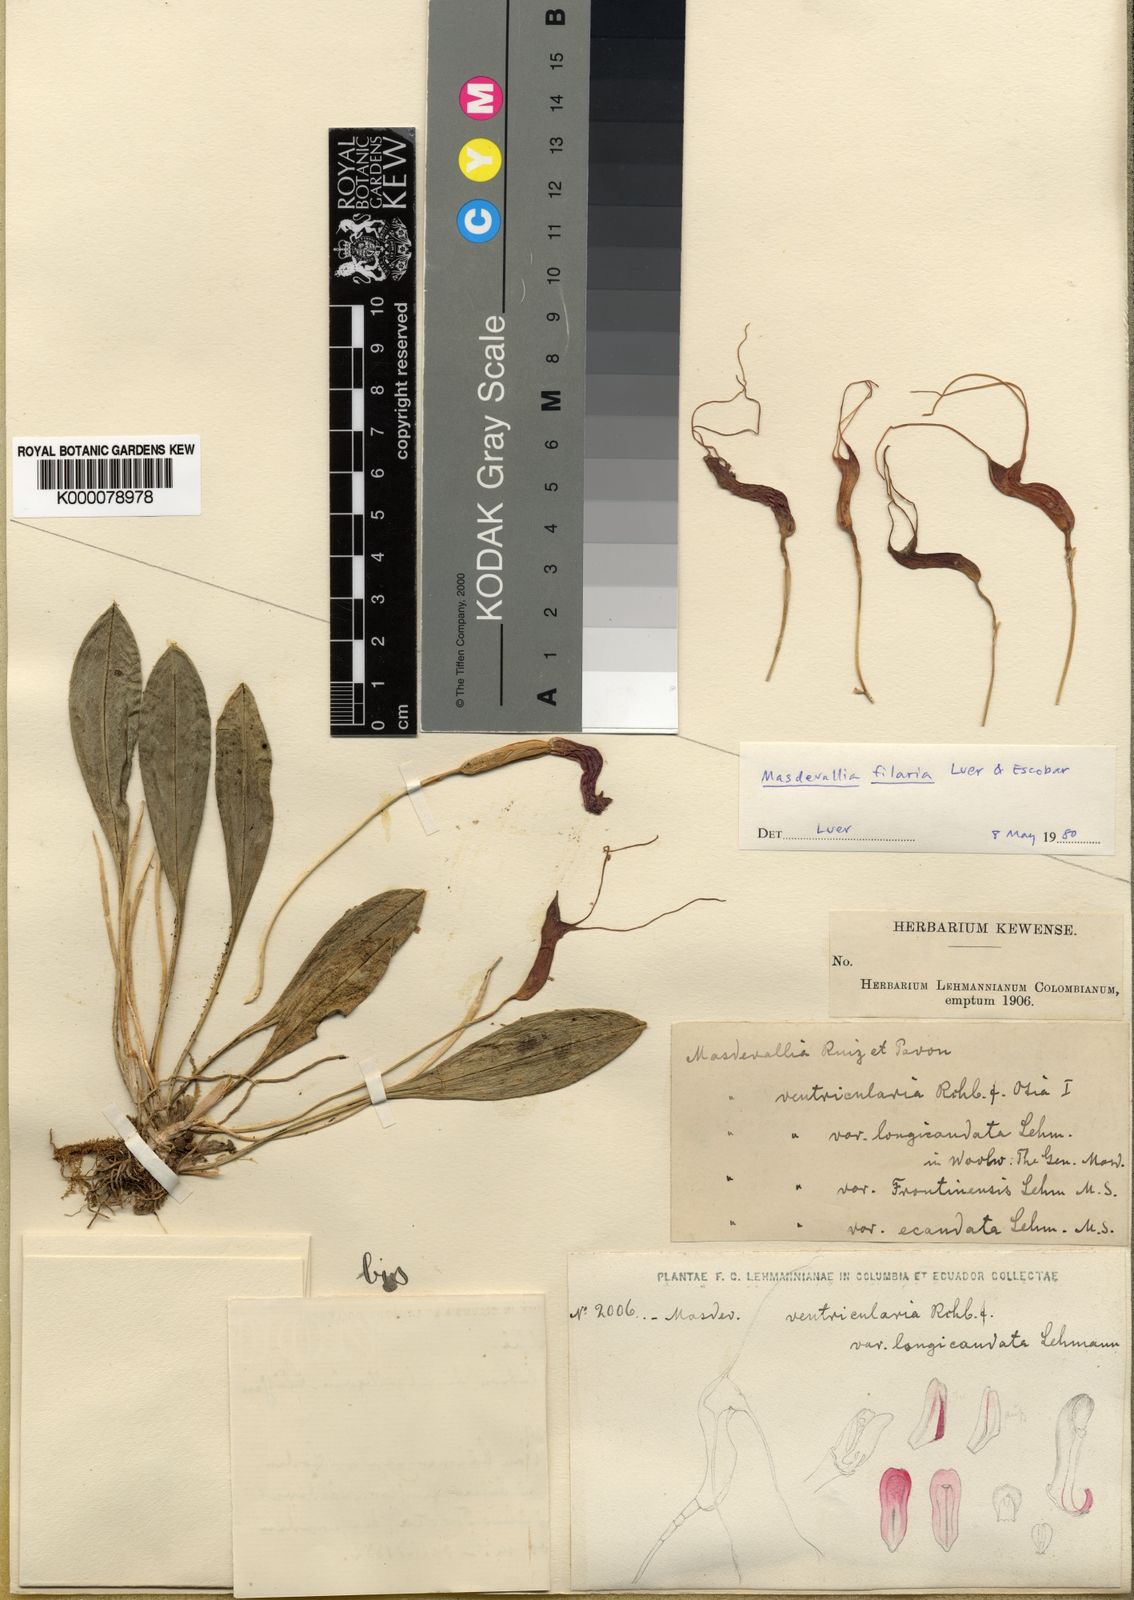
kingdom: Plantae
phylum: Tracheophyta
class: Liliopsida
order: Asparagales
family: Orchidaceae
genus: Masdevallia
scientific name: Masdevallia filaria
